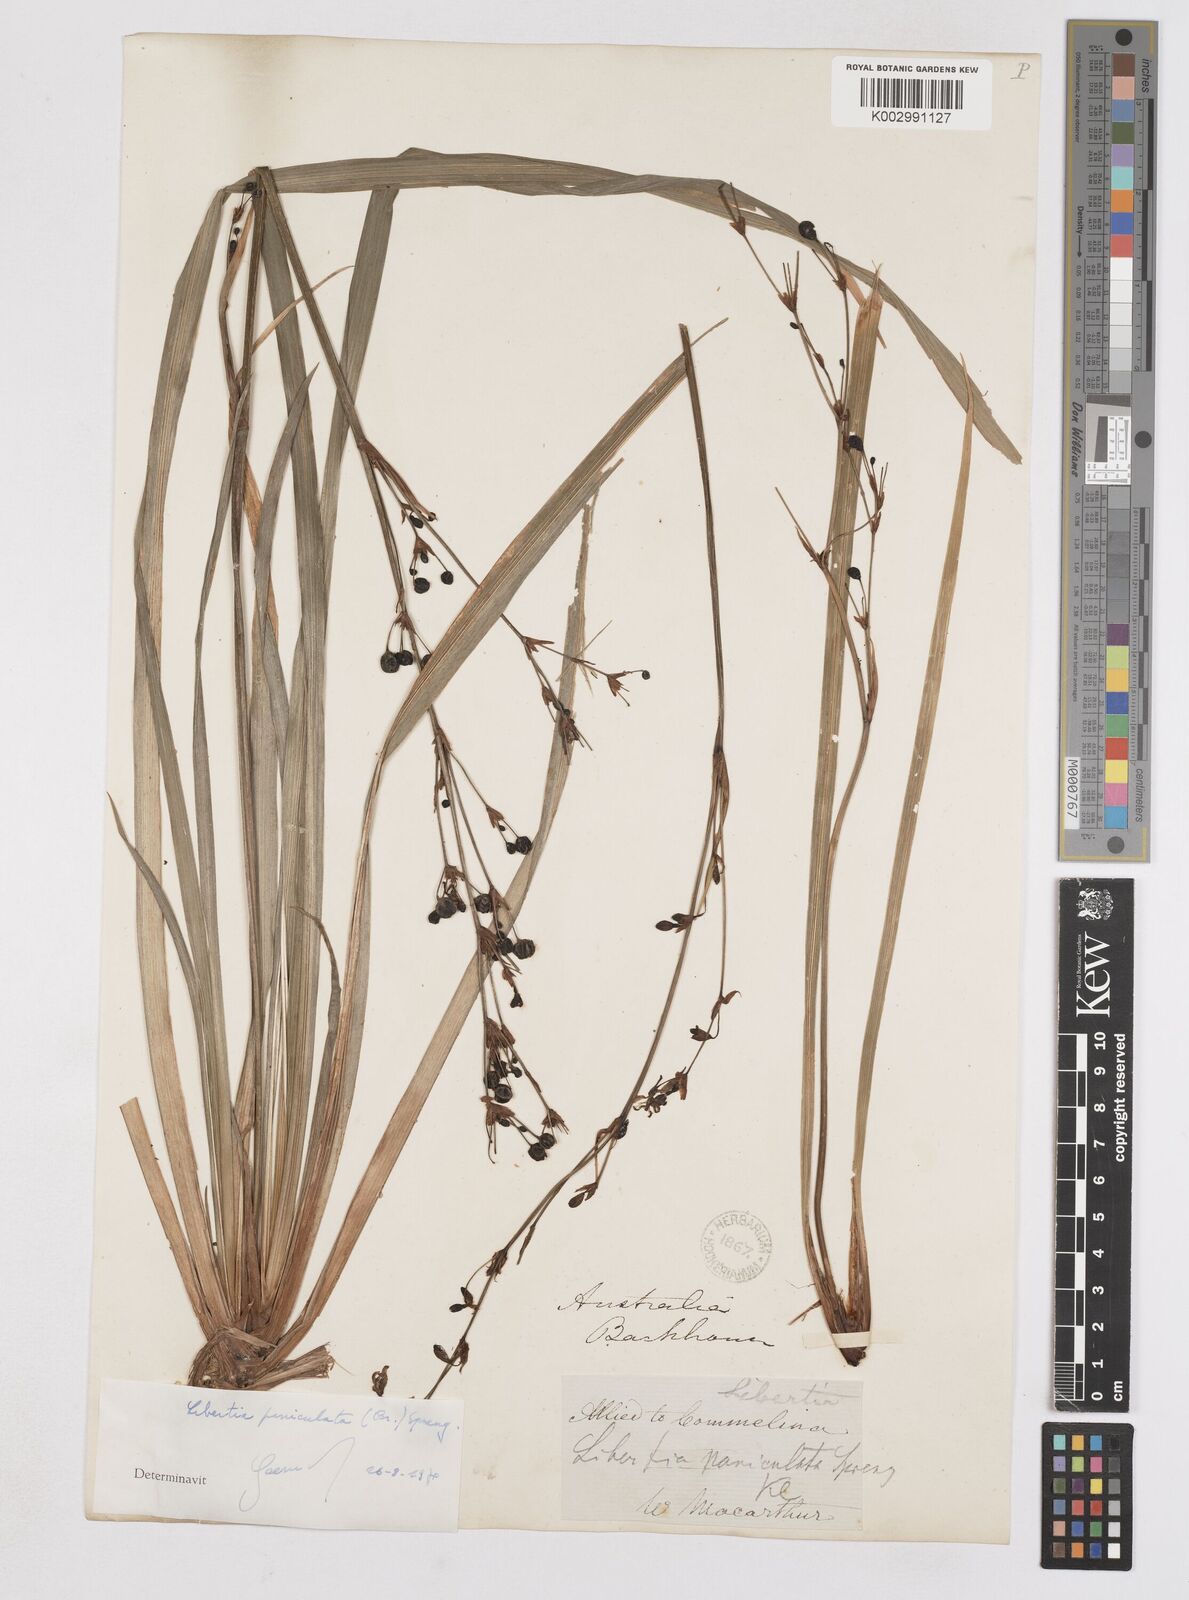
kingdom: Plantae
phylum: Tracheophyta
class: Liliopsida
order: Asparagales
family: Iridaceae
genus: Libertia
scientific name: Libertia paniculata
